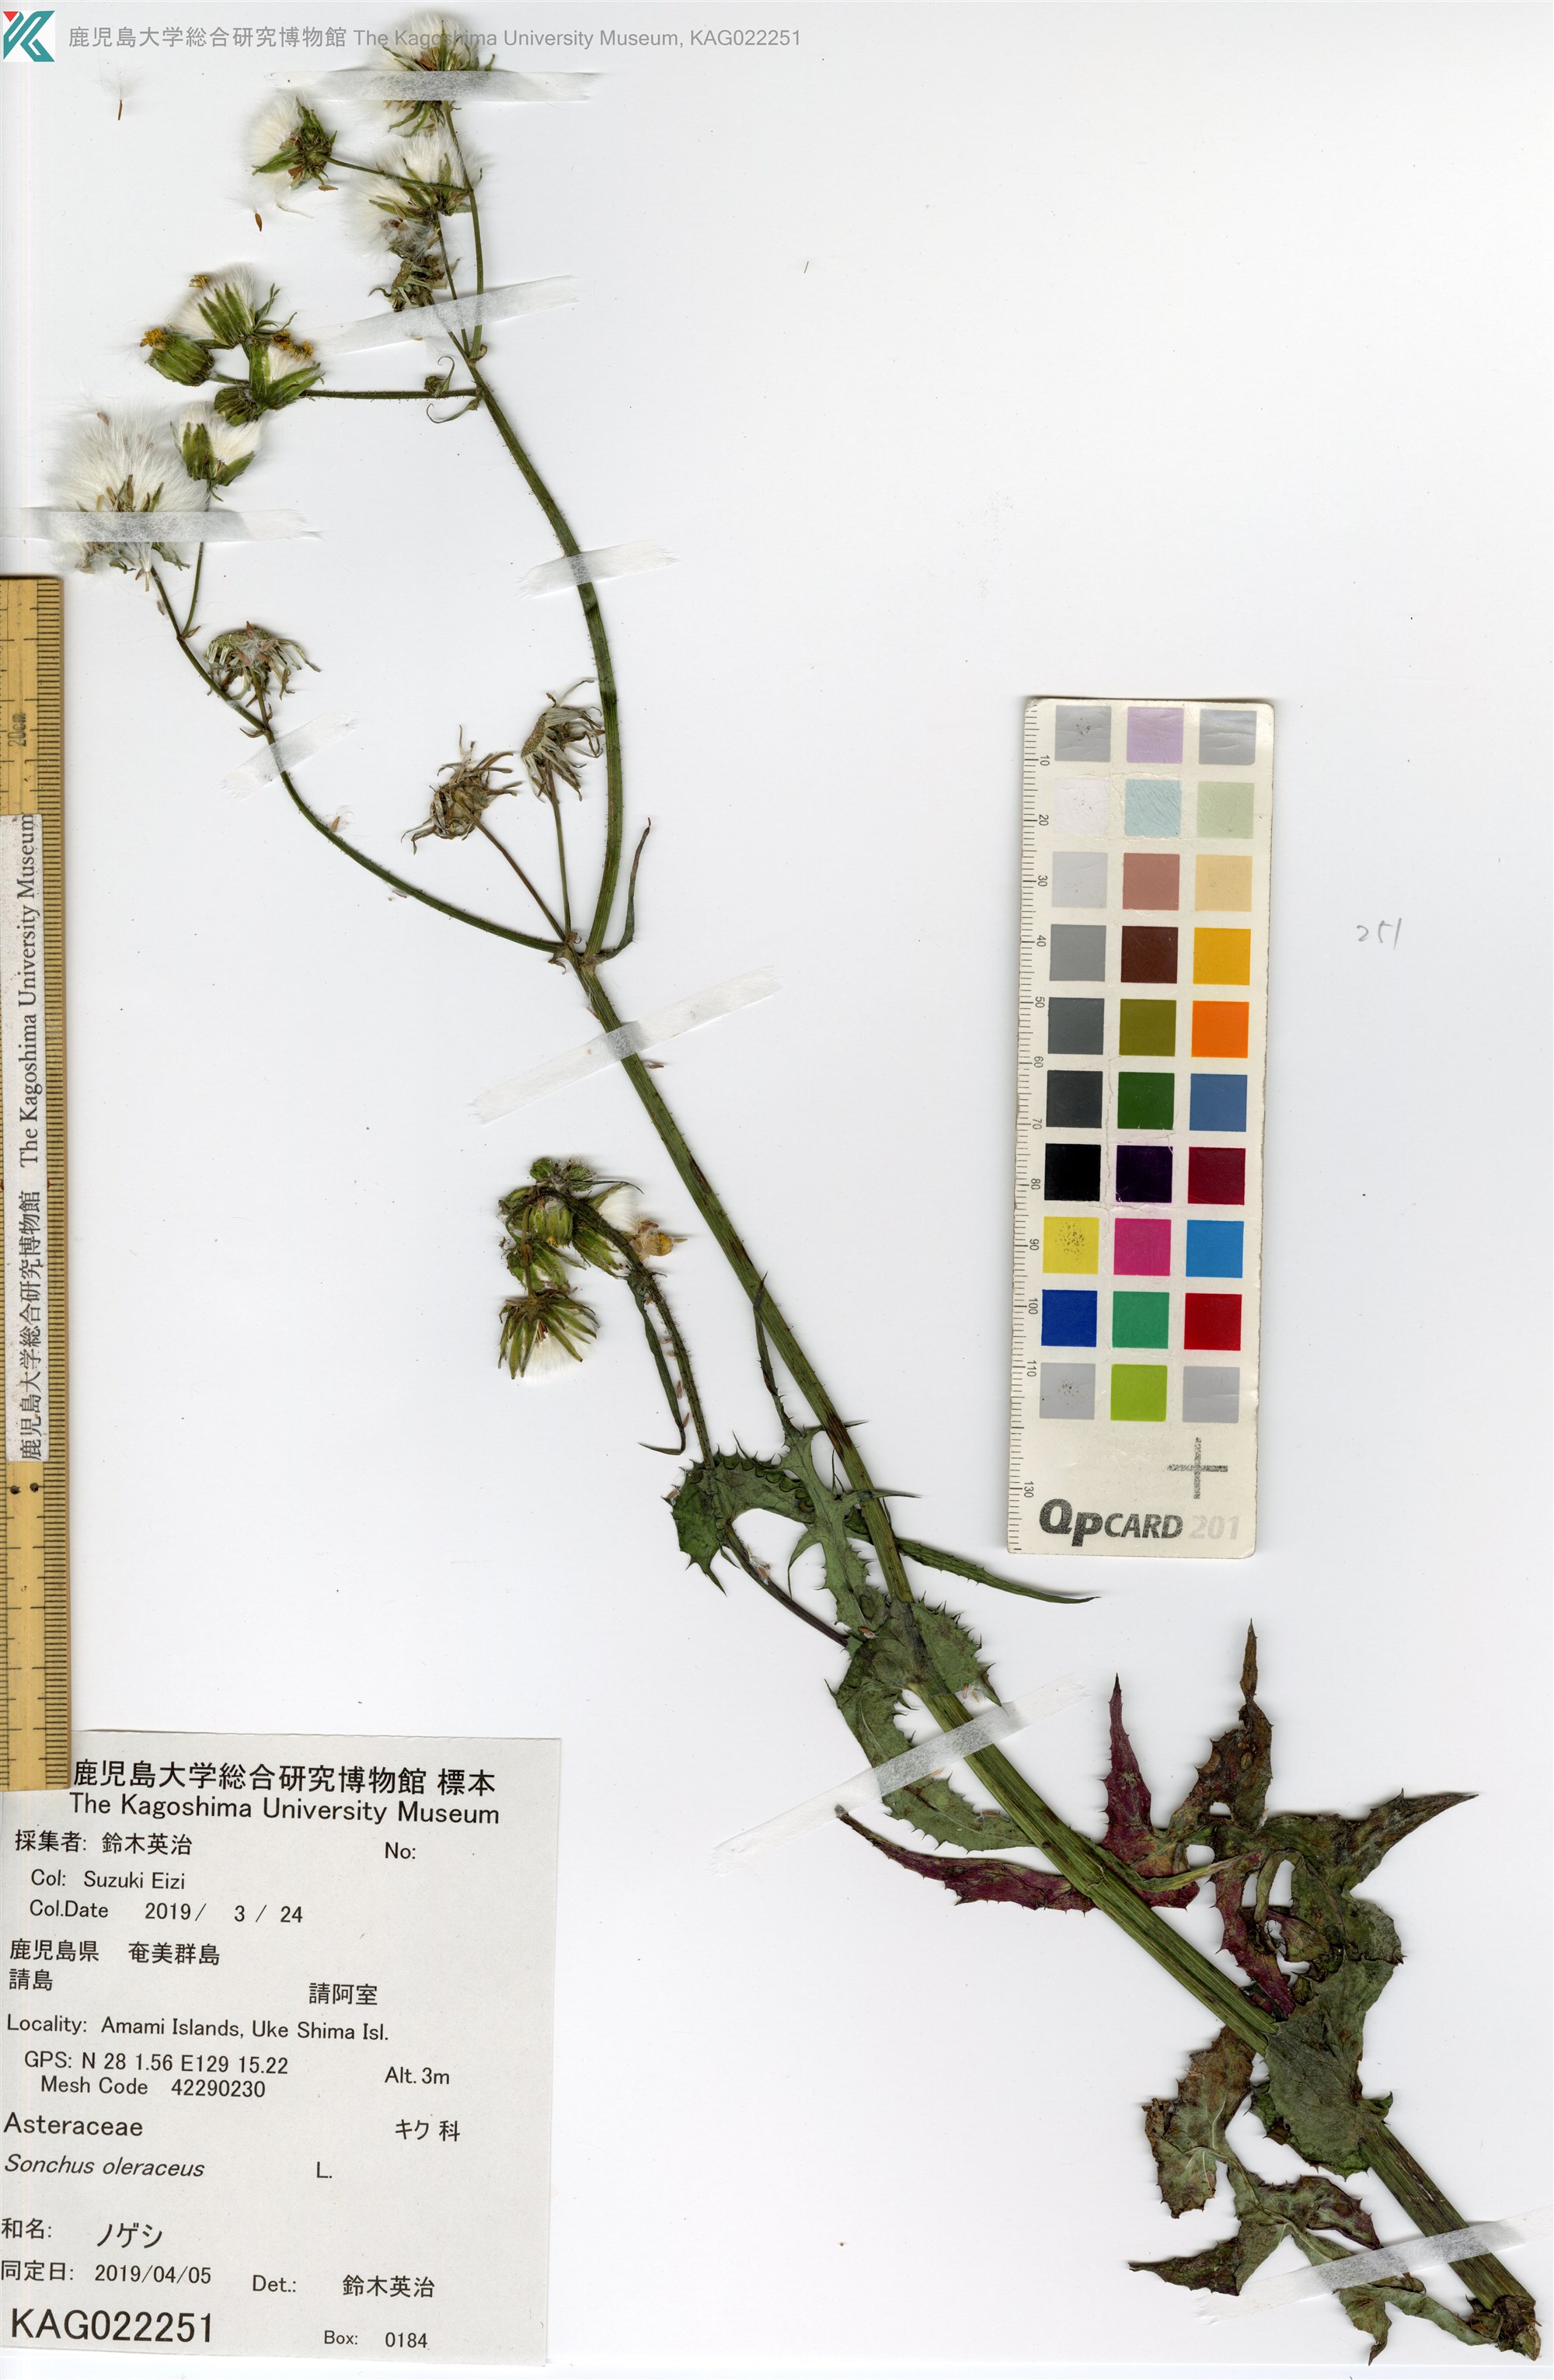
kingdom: Plantae
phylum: Tracheophyta
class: Magnoliopsida
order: Asterales
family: Asteraceae
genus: Sonchus
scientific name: Sonchus oleraceus
